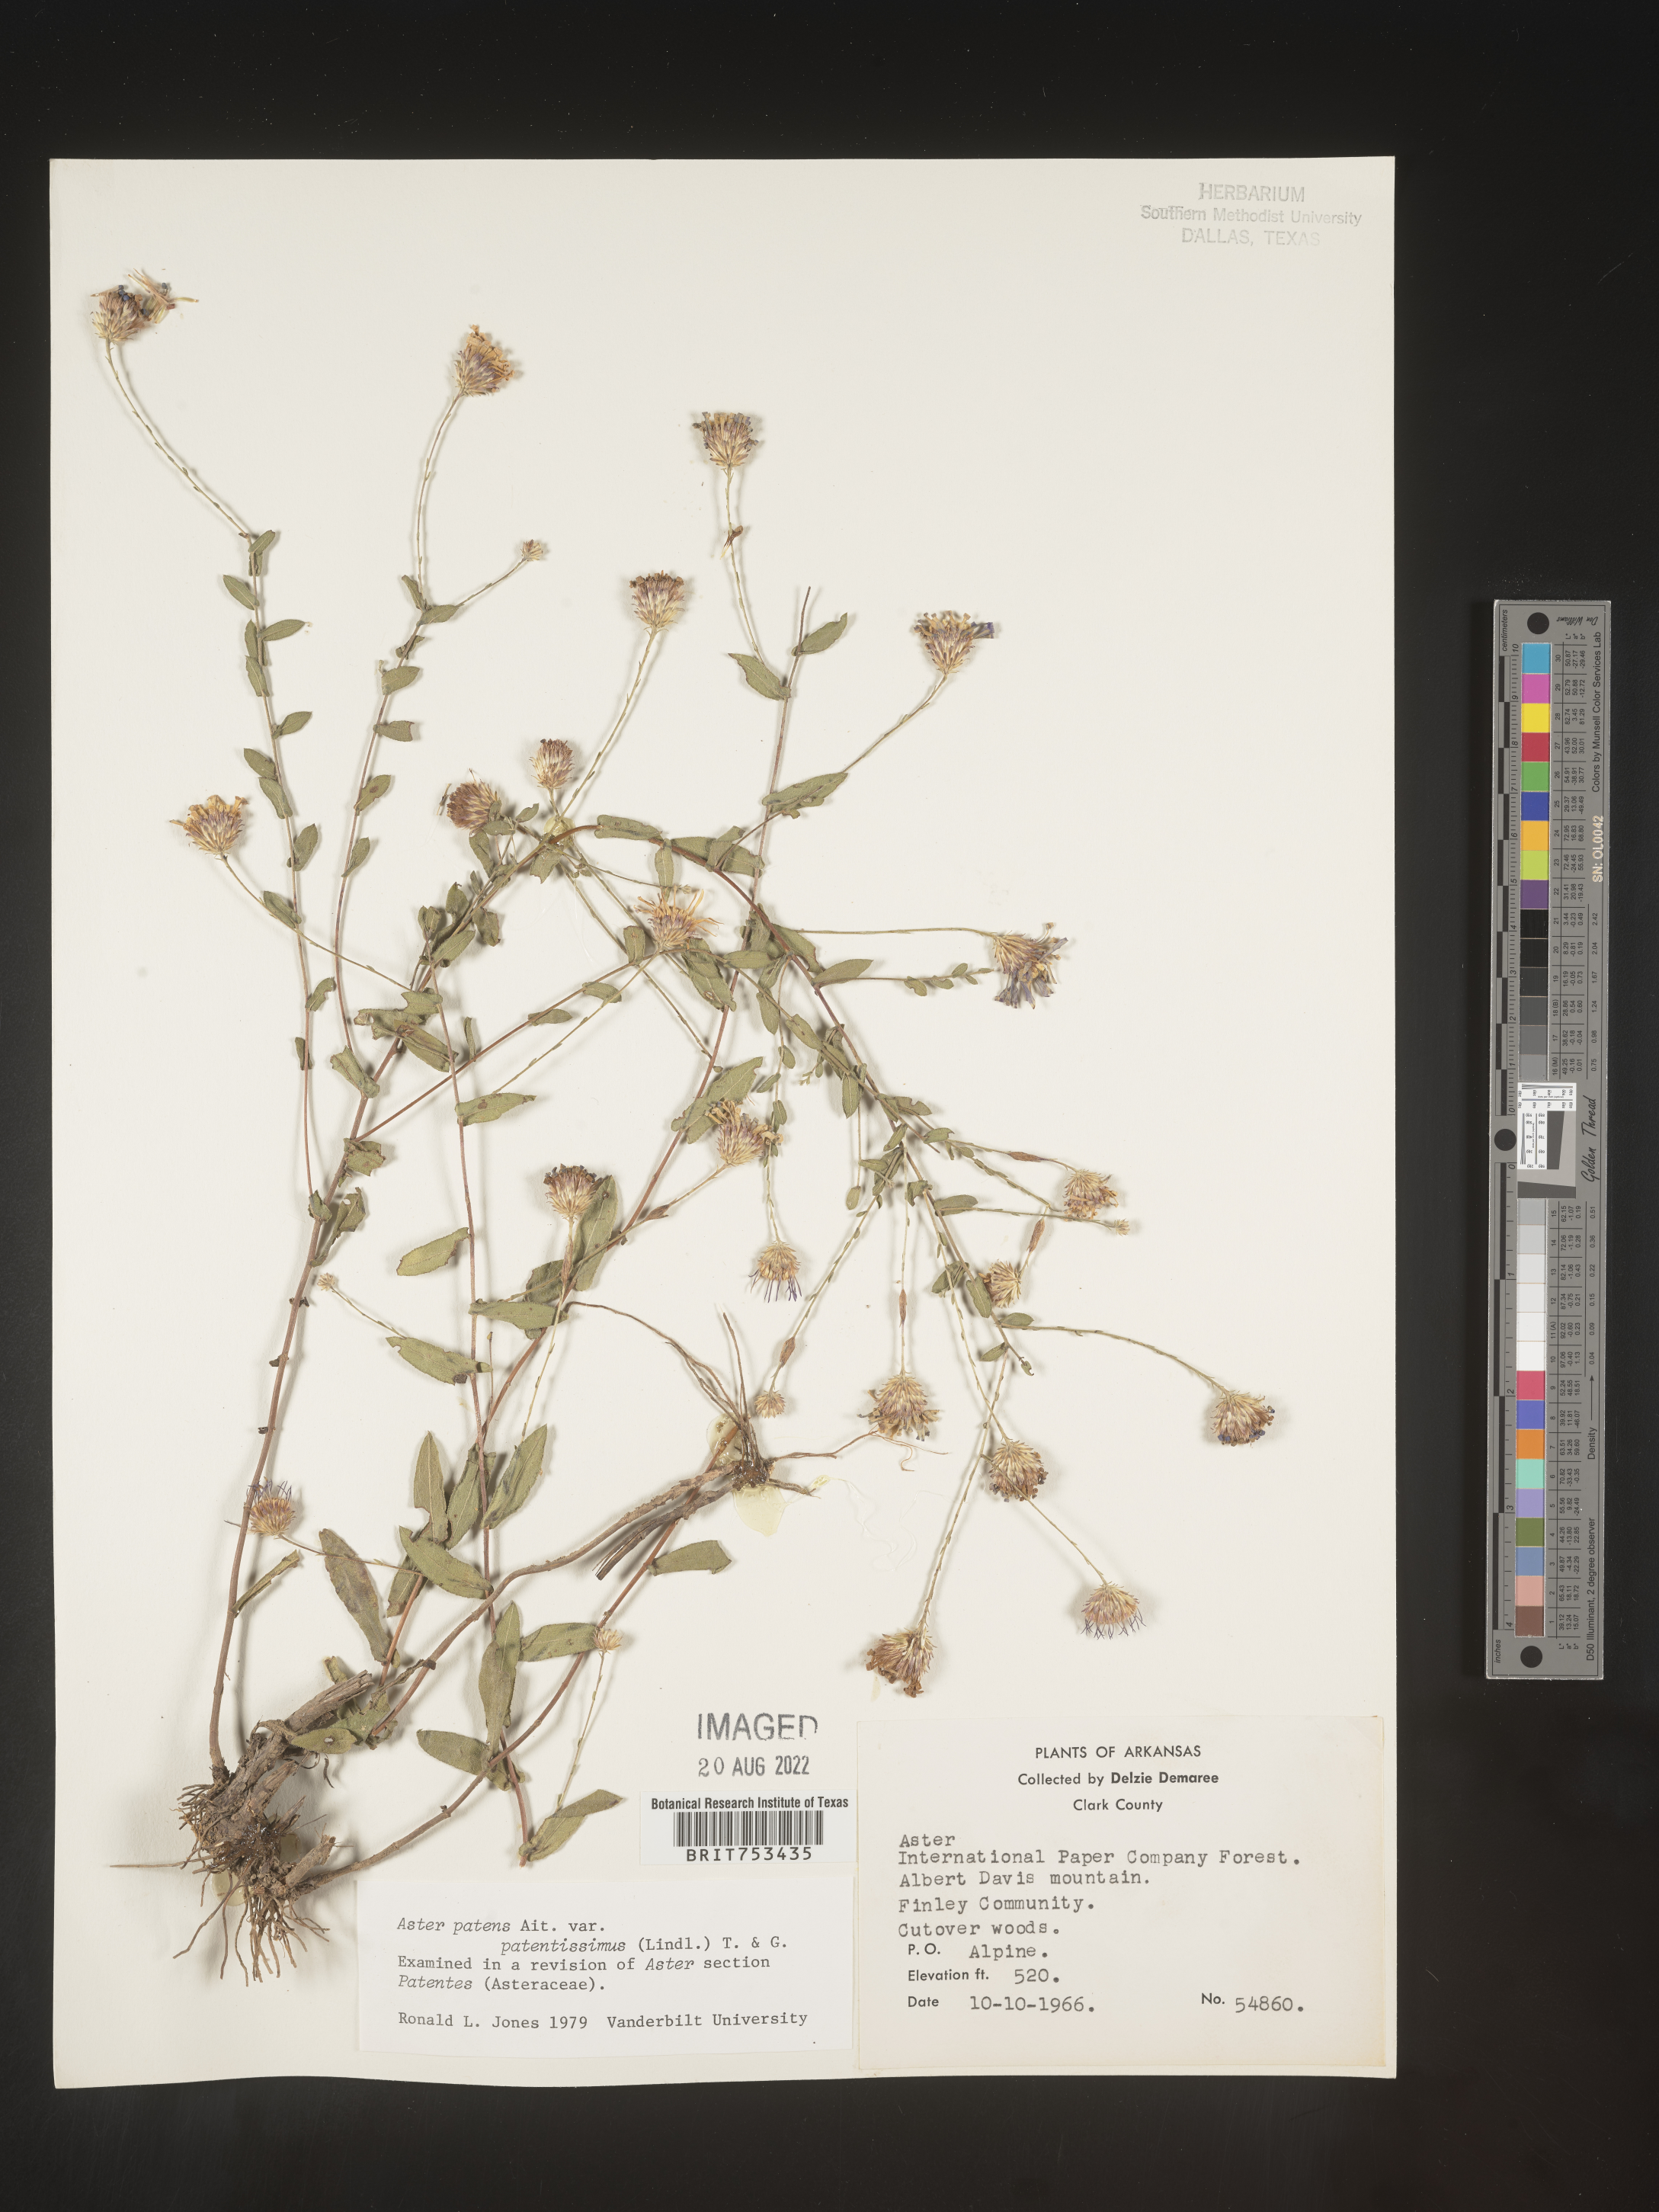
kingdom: Plantae
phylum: Tracheophyta
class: Magnoliopsida
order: Asterales
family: Asteraceae
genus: Symphyotrichum
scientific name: Symphyotrichum patens
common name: Late purple aster
